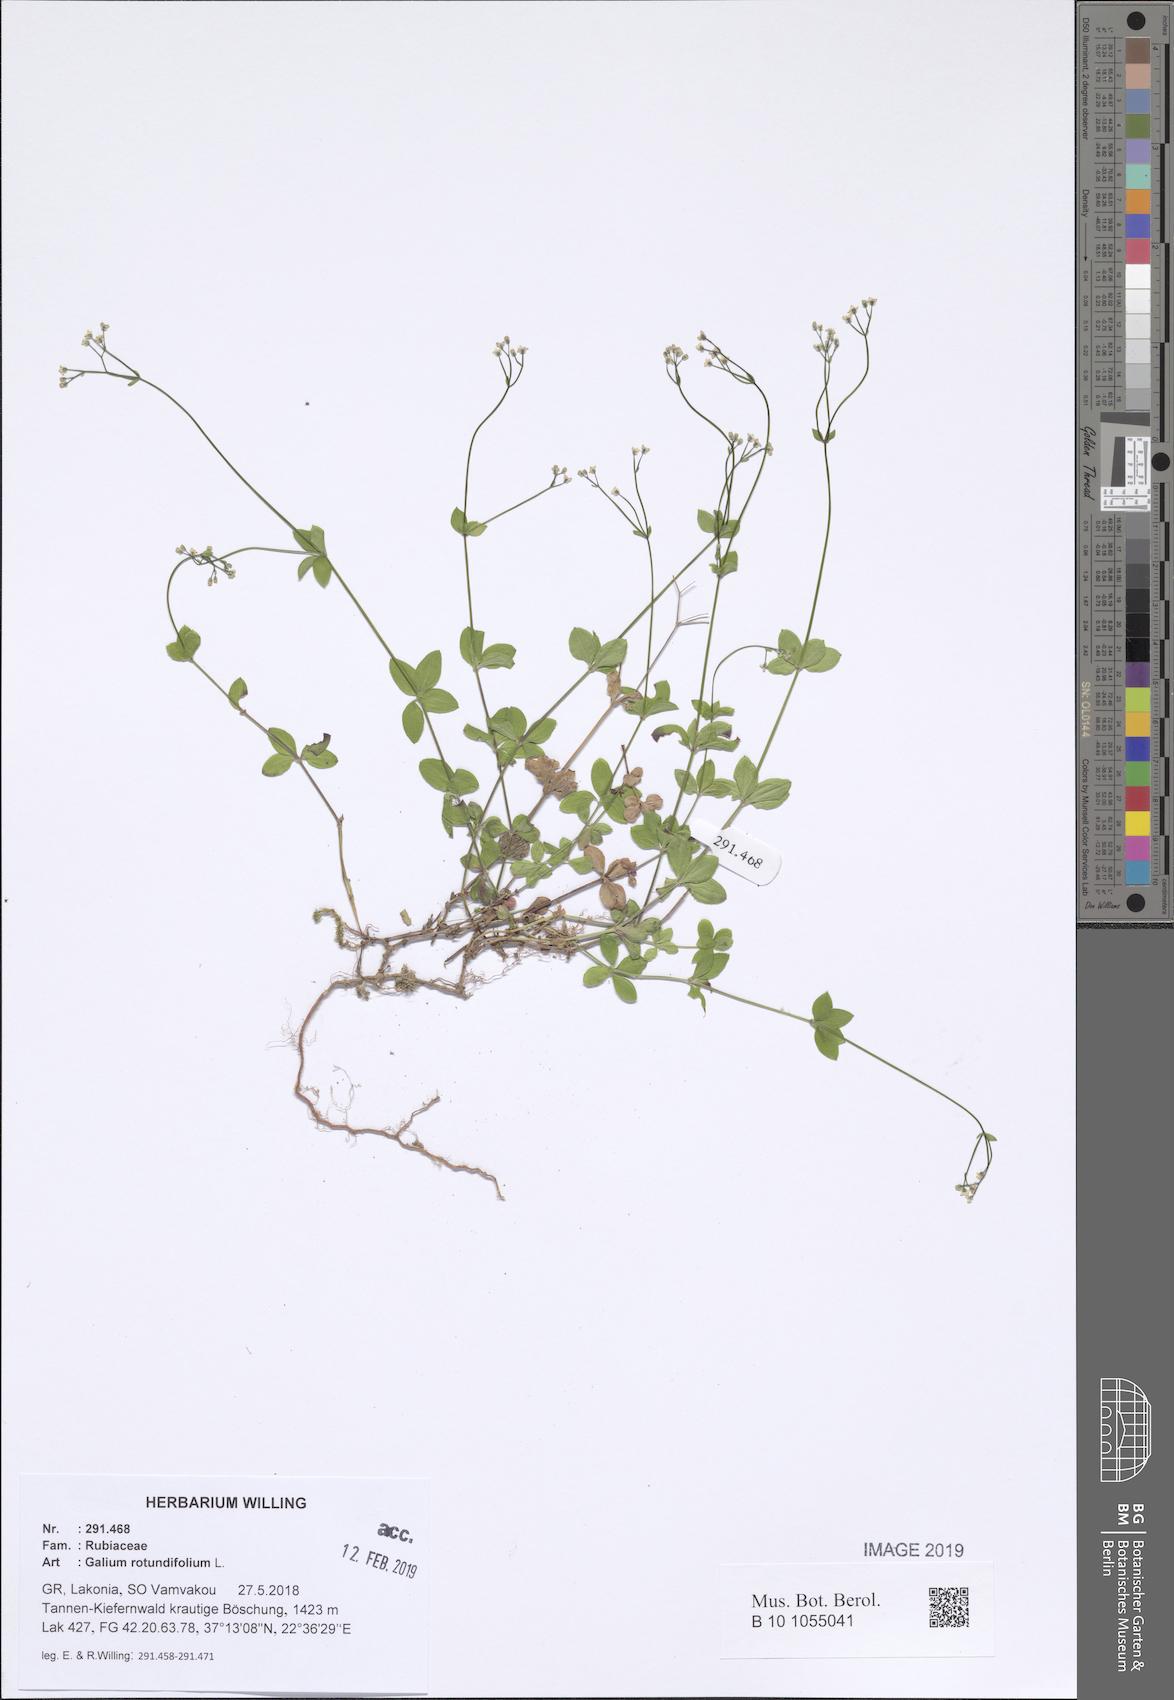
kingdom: Plantae
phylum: Tracheophyta
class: Magnoliopsida
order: Gentianales
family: Rubiaceae
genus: Galium
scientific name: Galium rotundifolium
